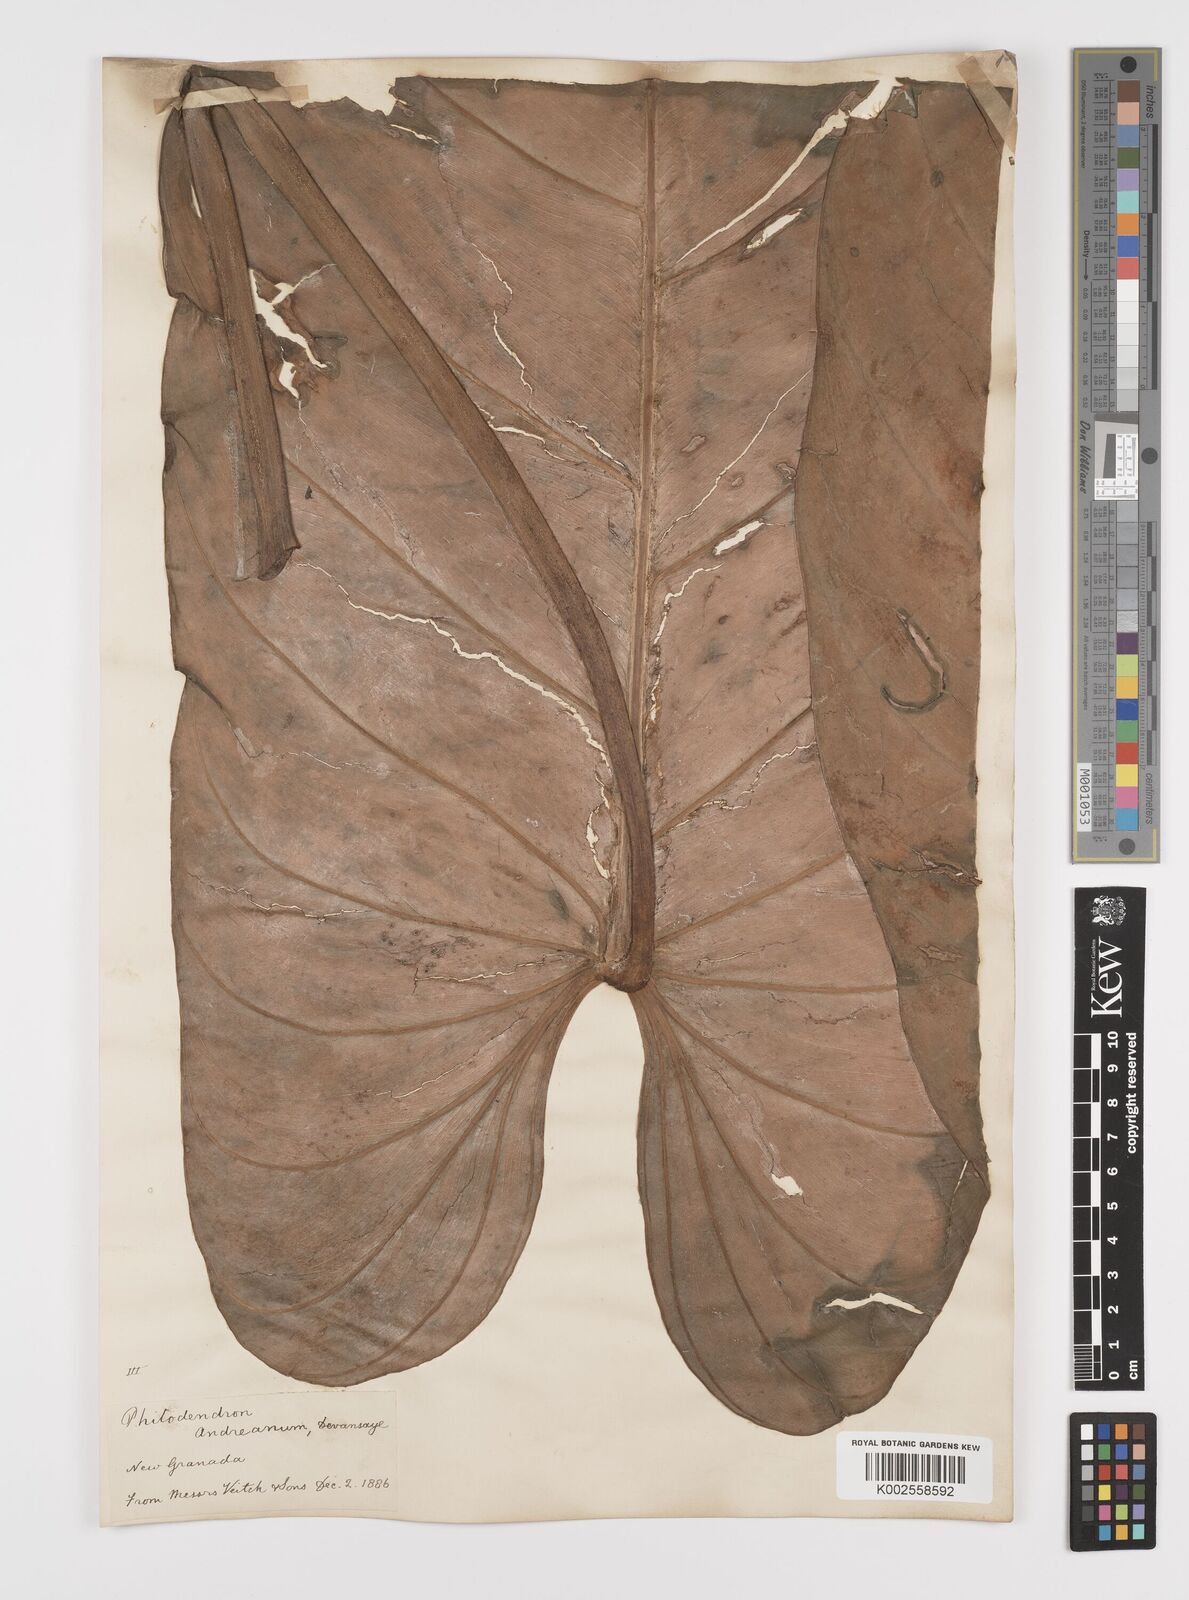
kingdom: Plantae
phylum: Tracheophyta
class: Liliopsida
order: Alismatales
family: Araceae
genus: Philodendron
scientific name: Philodendron melanochrysum
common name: Black-gold philodendron
